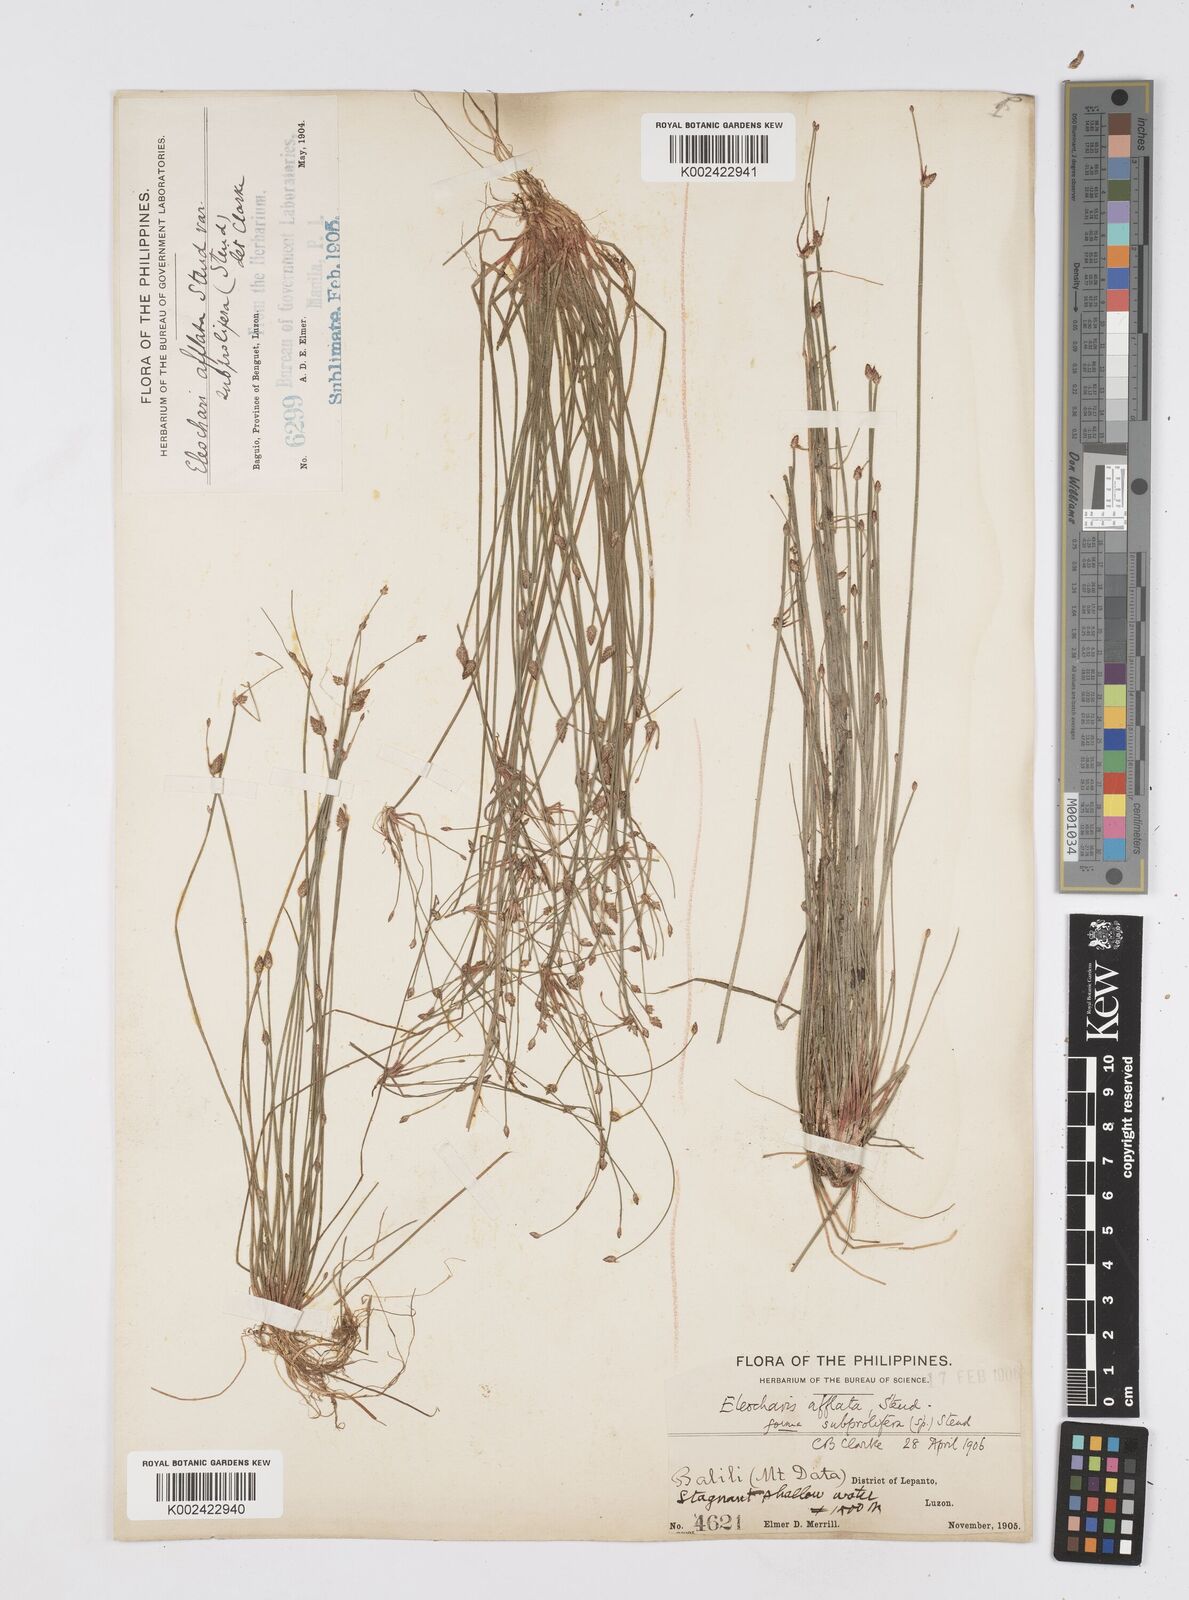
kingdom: Plantae
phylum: Tracheophyta
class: Liliopsida
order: Poales
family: Cyperaceae
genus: Eleocharis
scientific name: Eleocharis congesta
